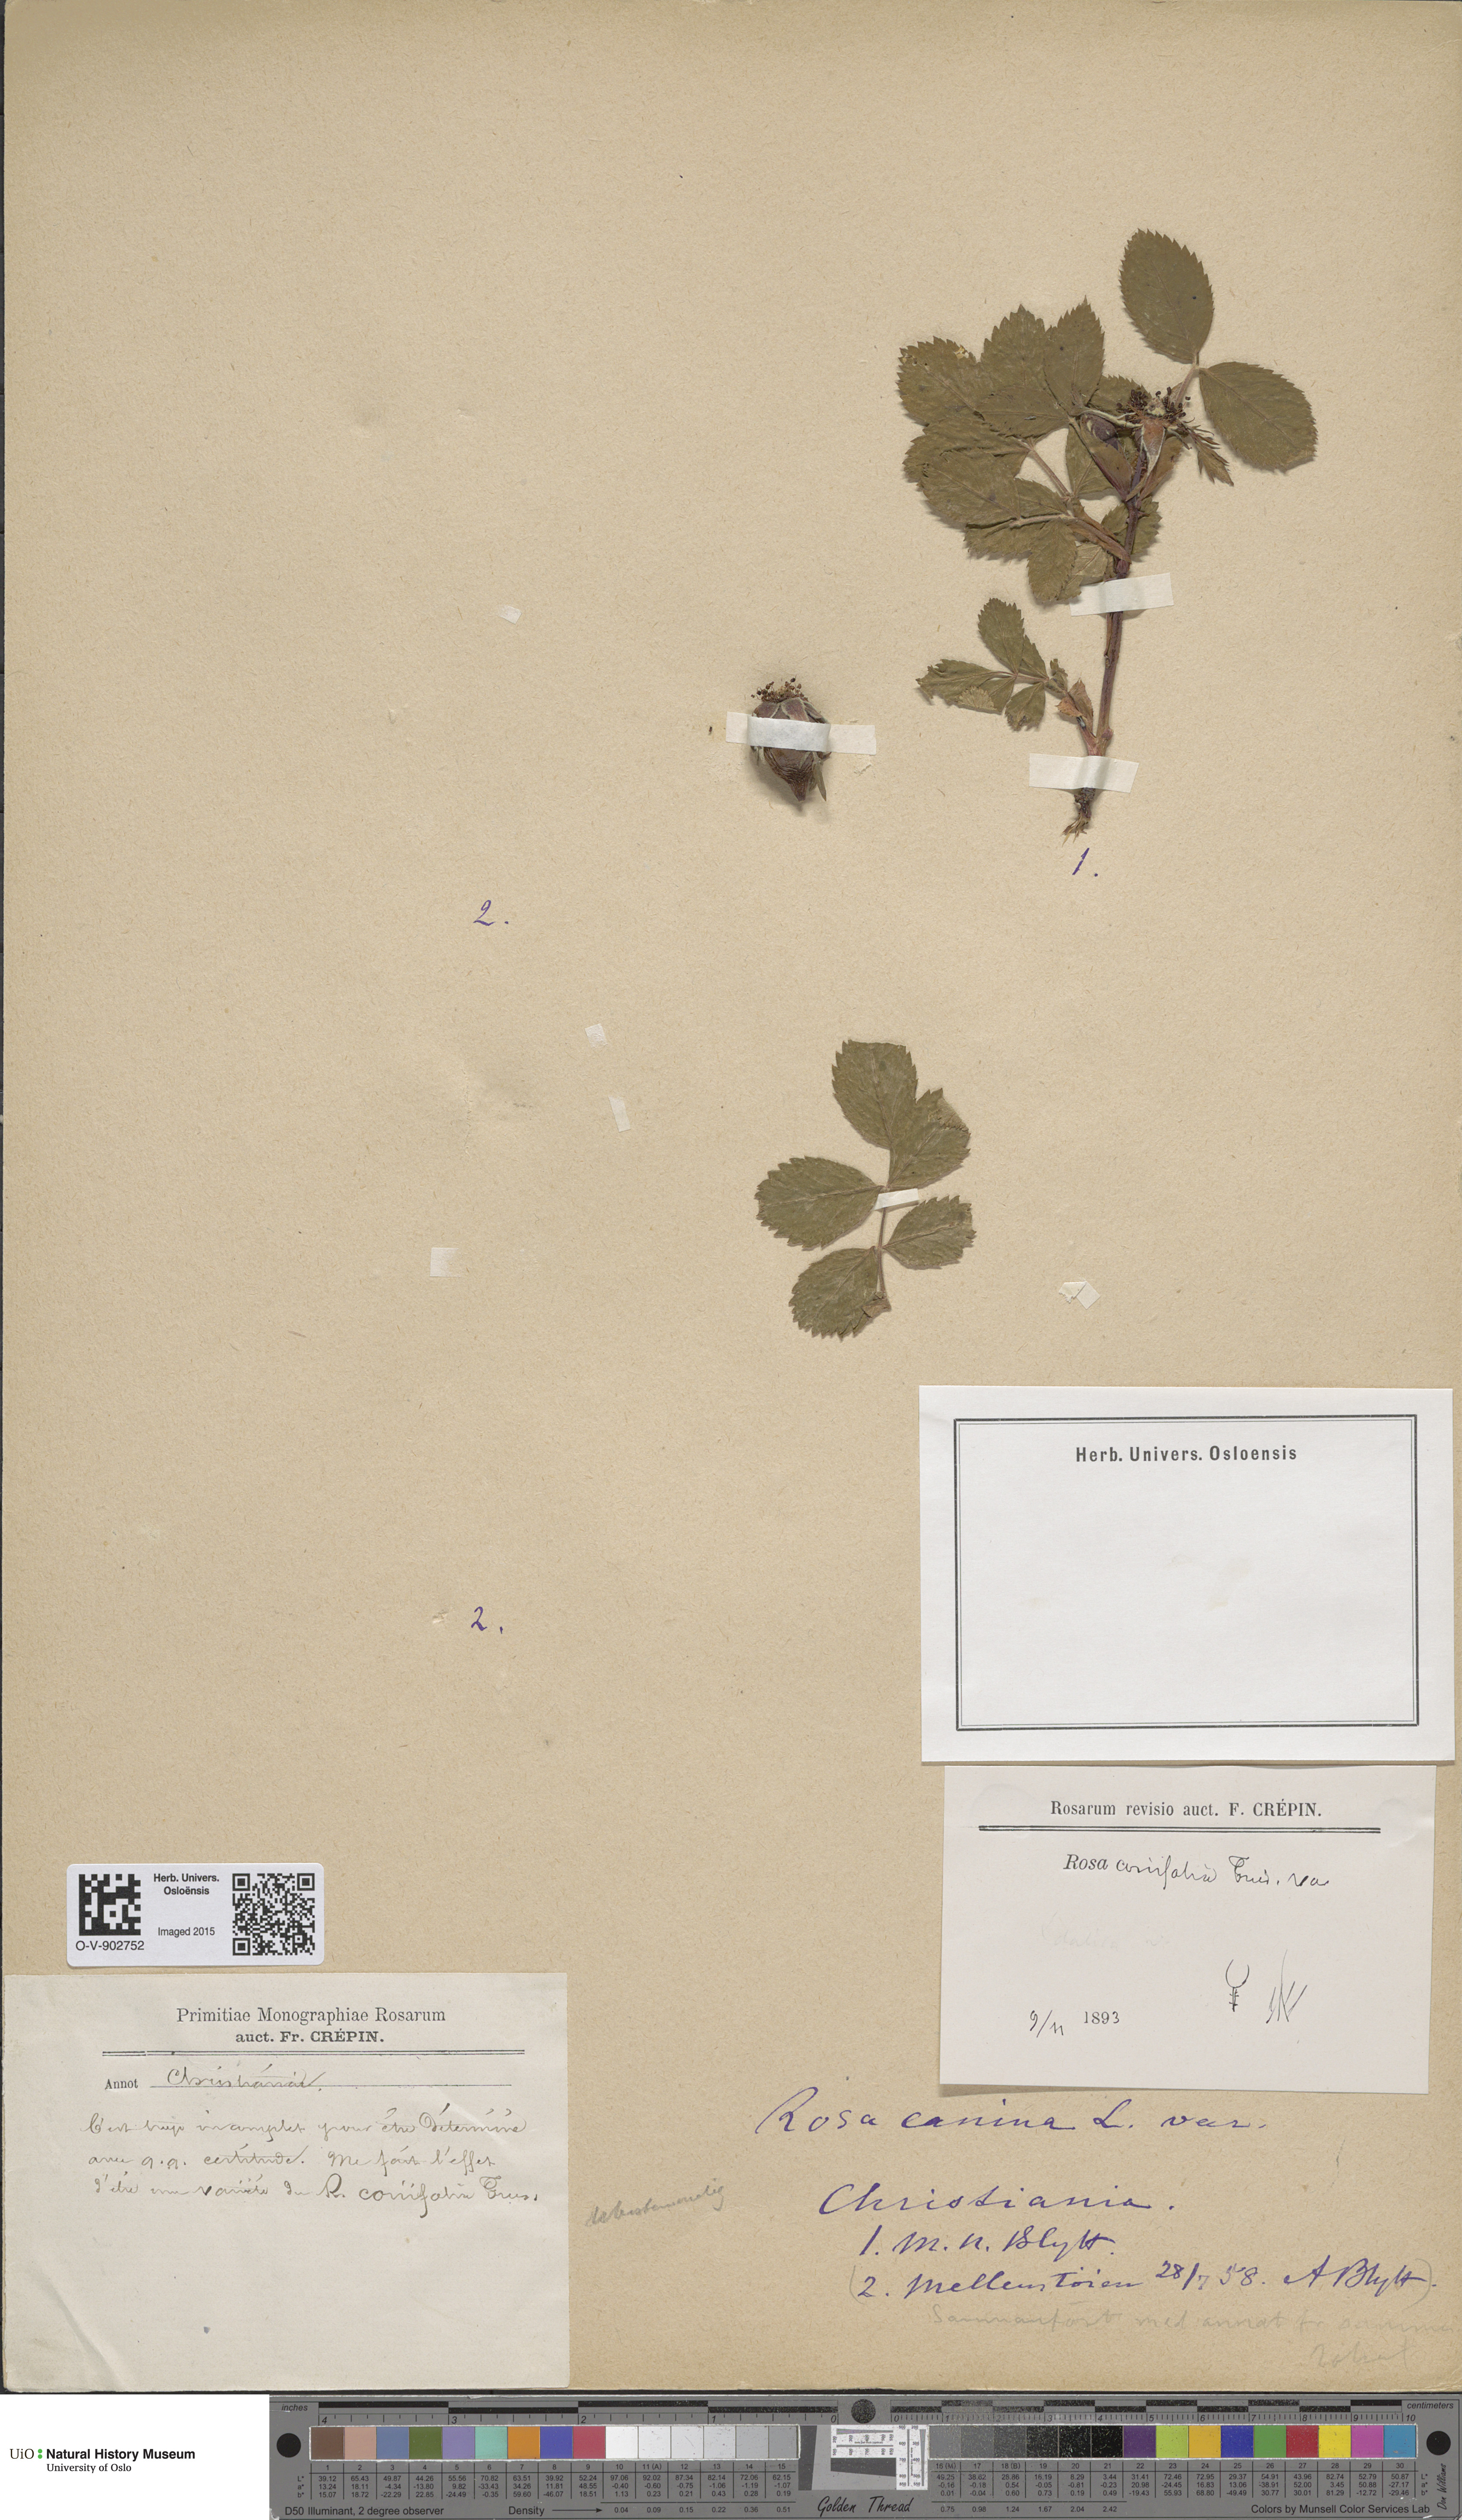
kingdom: Plantae
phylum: Tracheophyta
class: Magnoliopsida
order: Rosales
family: Rosaceae
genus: Rosa
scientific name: Rosa caesia
